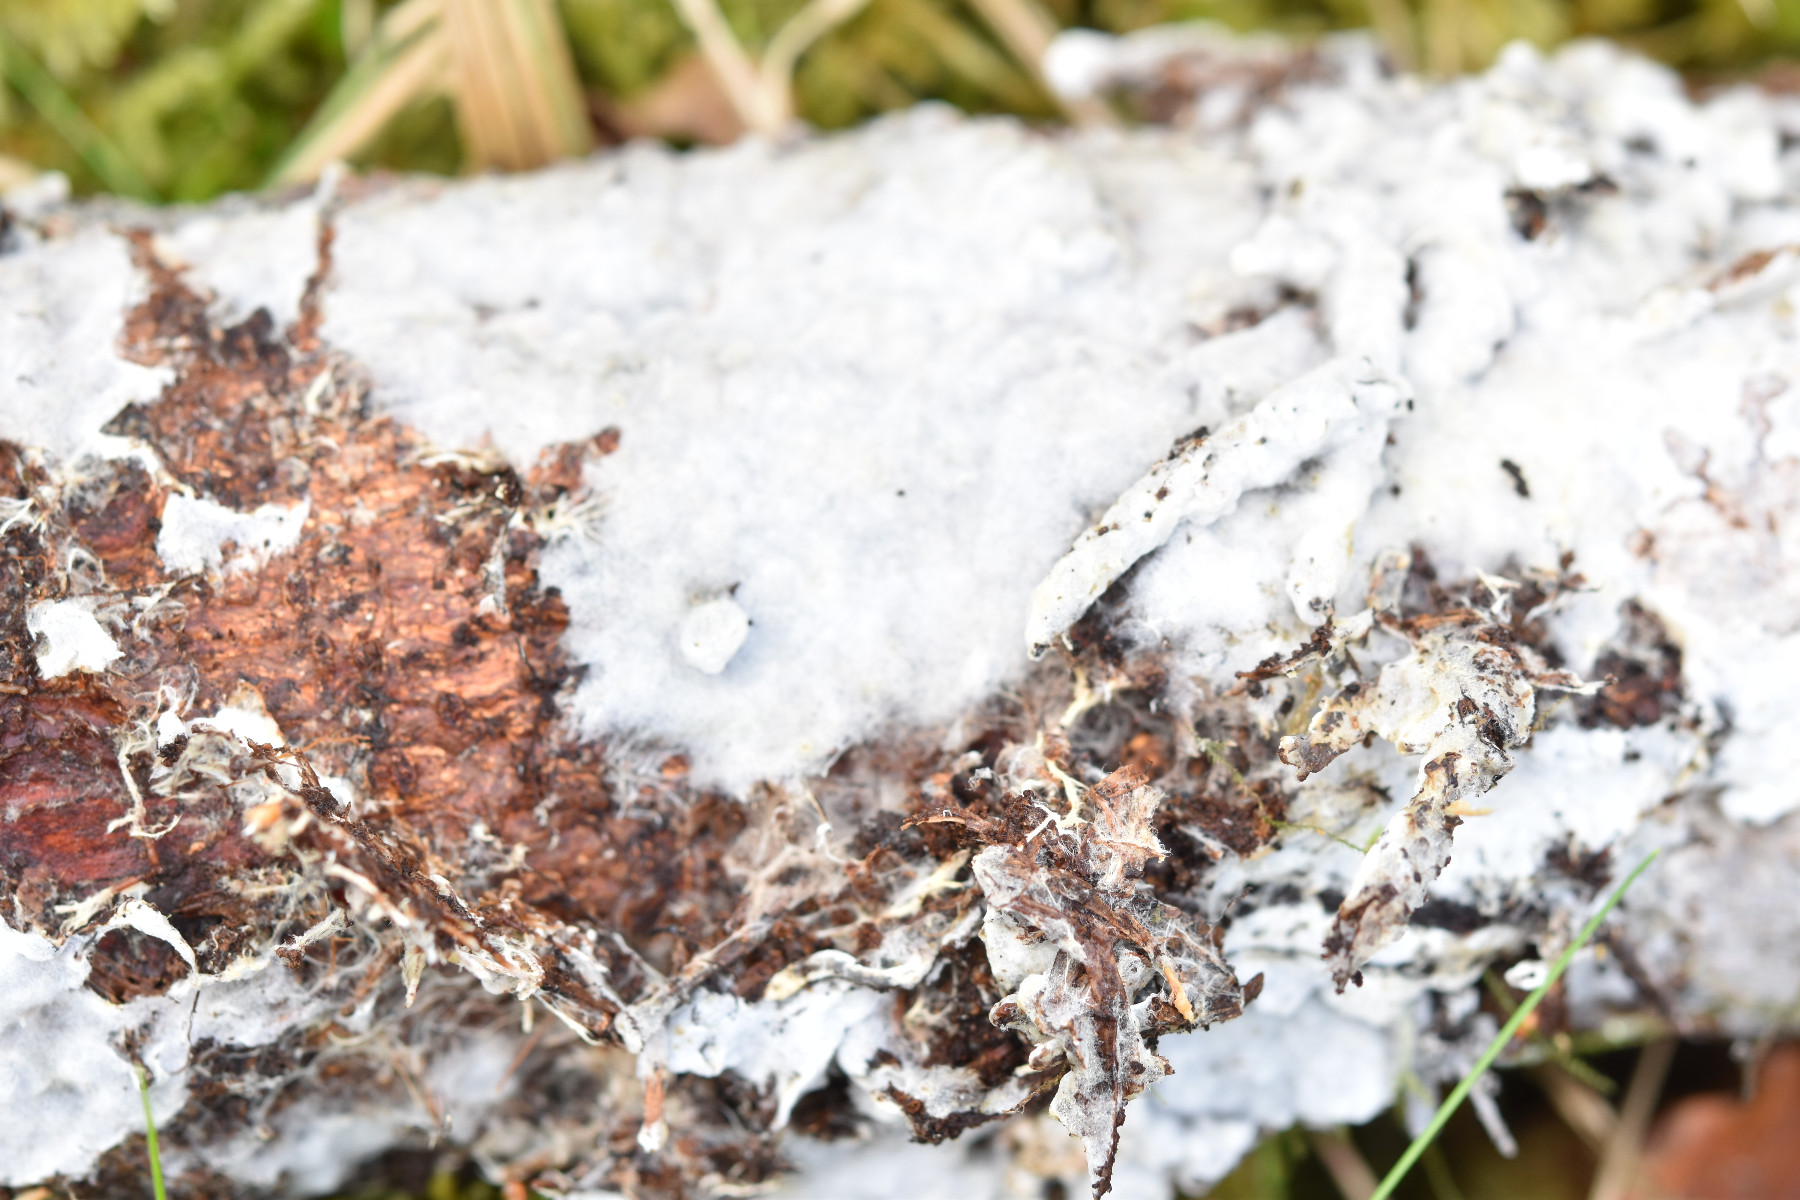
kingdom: Fungi
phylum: Basidiomycota
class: Agaricomycetes
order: Atheliales
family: Atheliaceae
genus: Piloderma
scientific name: Piloderma byssinum
